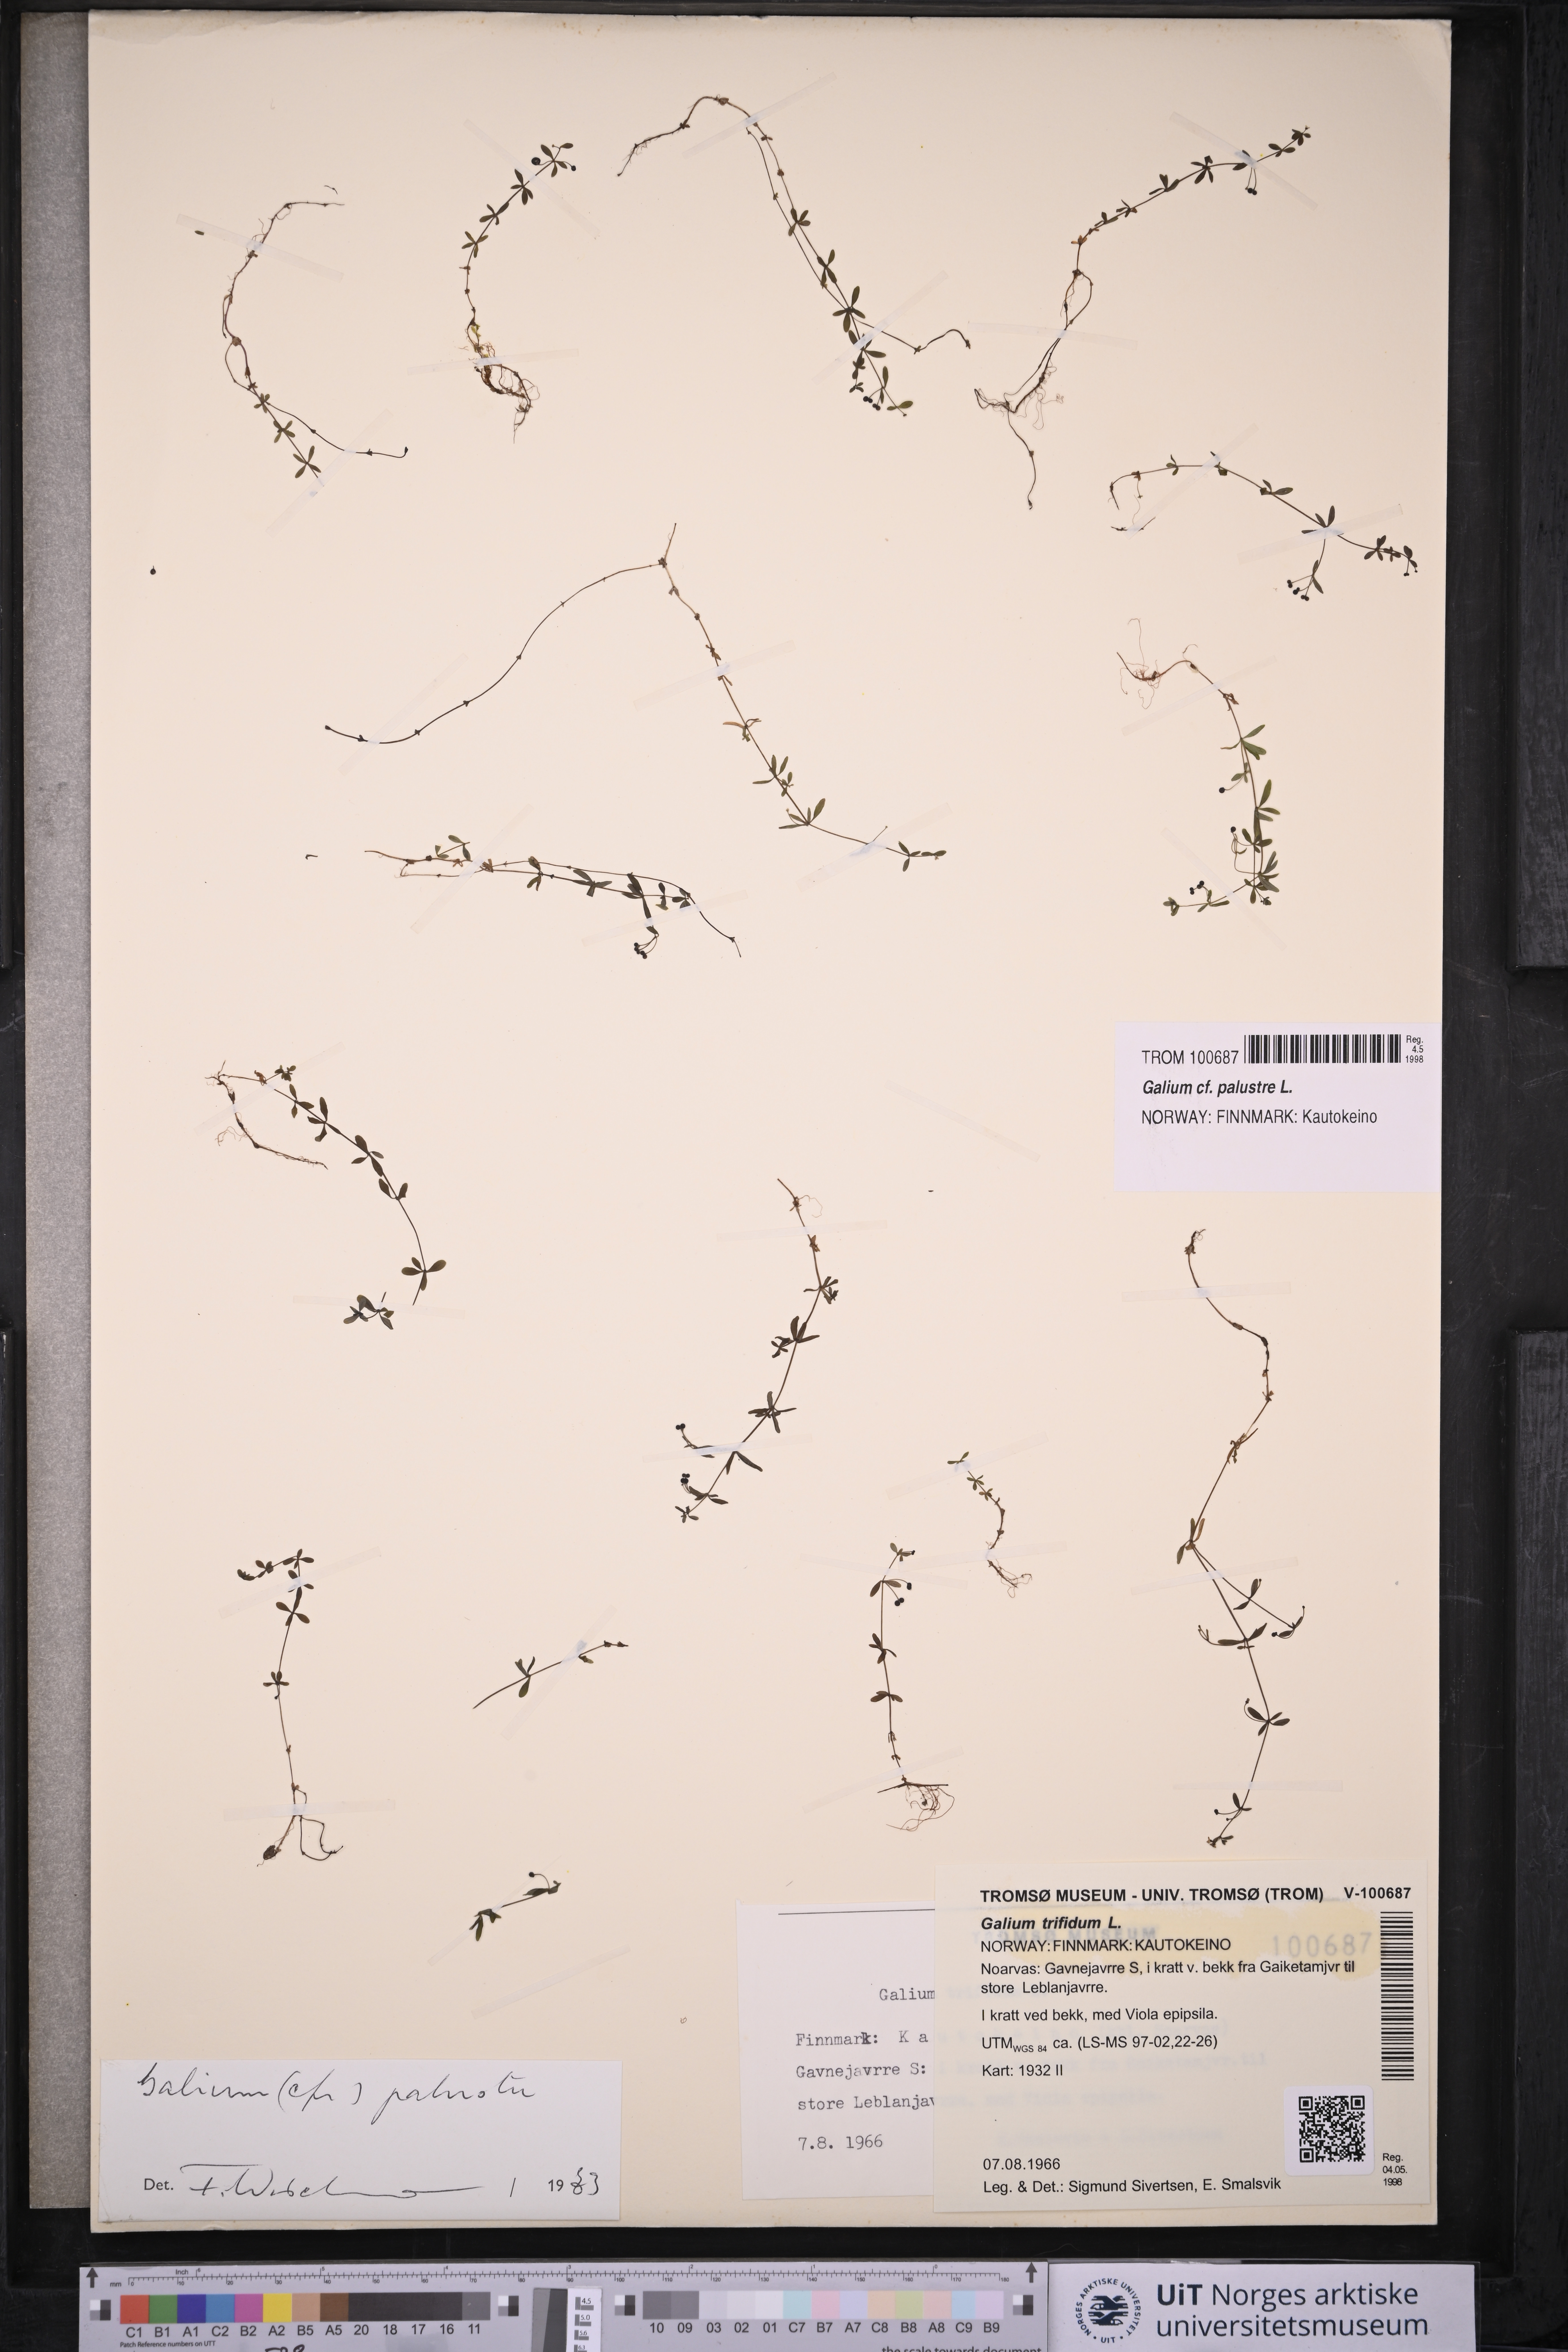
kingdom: Plantae
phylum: Tracheophyta
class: Magnoliopsida
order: Gentianales
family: Rubiaceae
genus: Galium
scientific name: Galium palustre
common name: Common marsh-bedstraw
